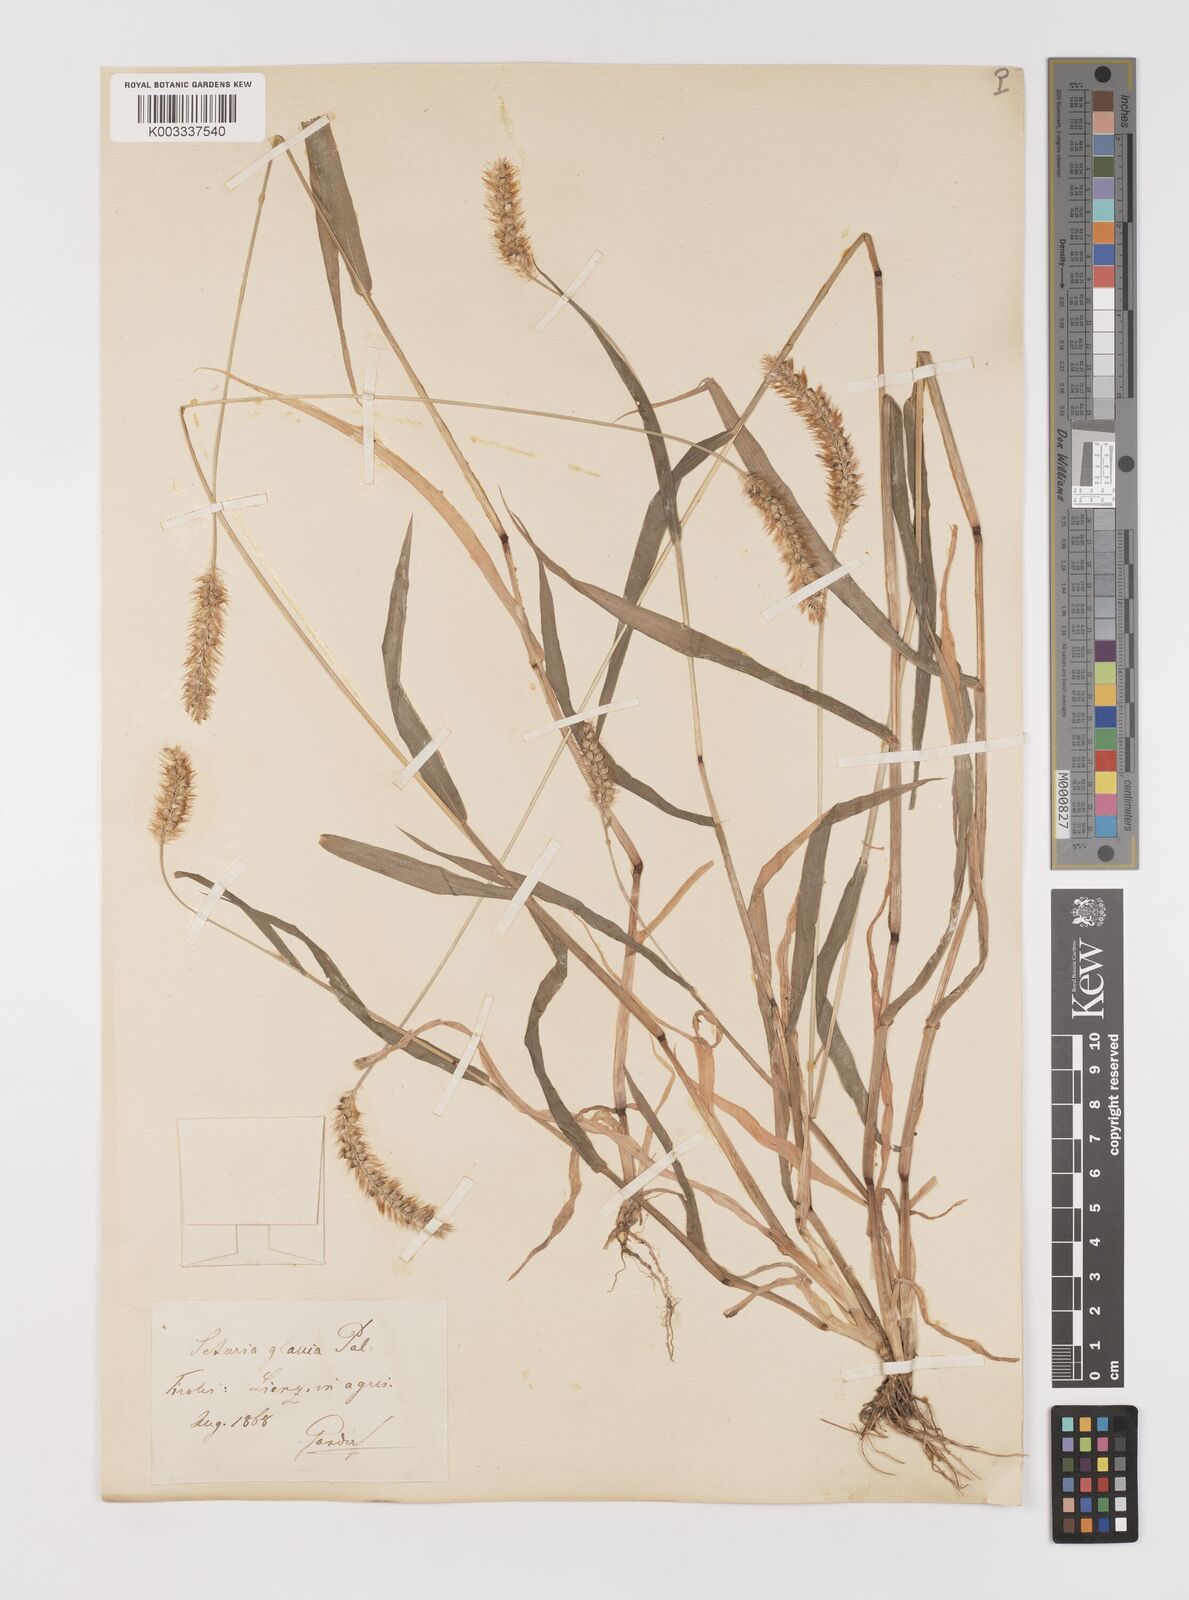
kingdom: Plantae
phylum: Tracheophyta
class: Liliopsida
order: Poales
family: Poaceae
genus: Setaria
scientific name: Setaria pumila
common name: Yellow bristle-grass
